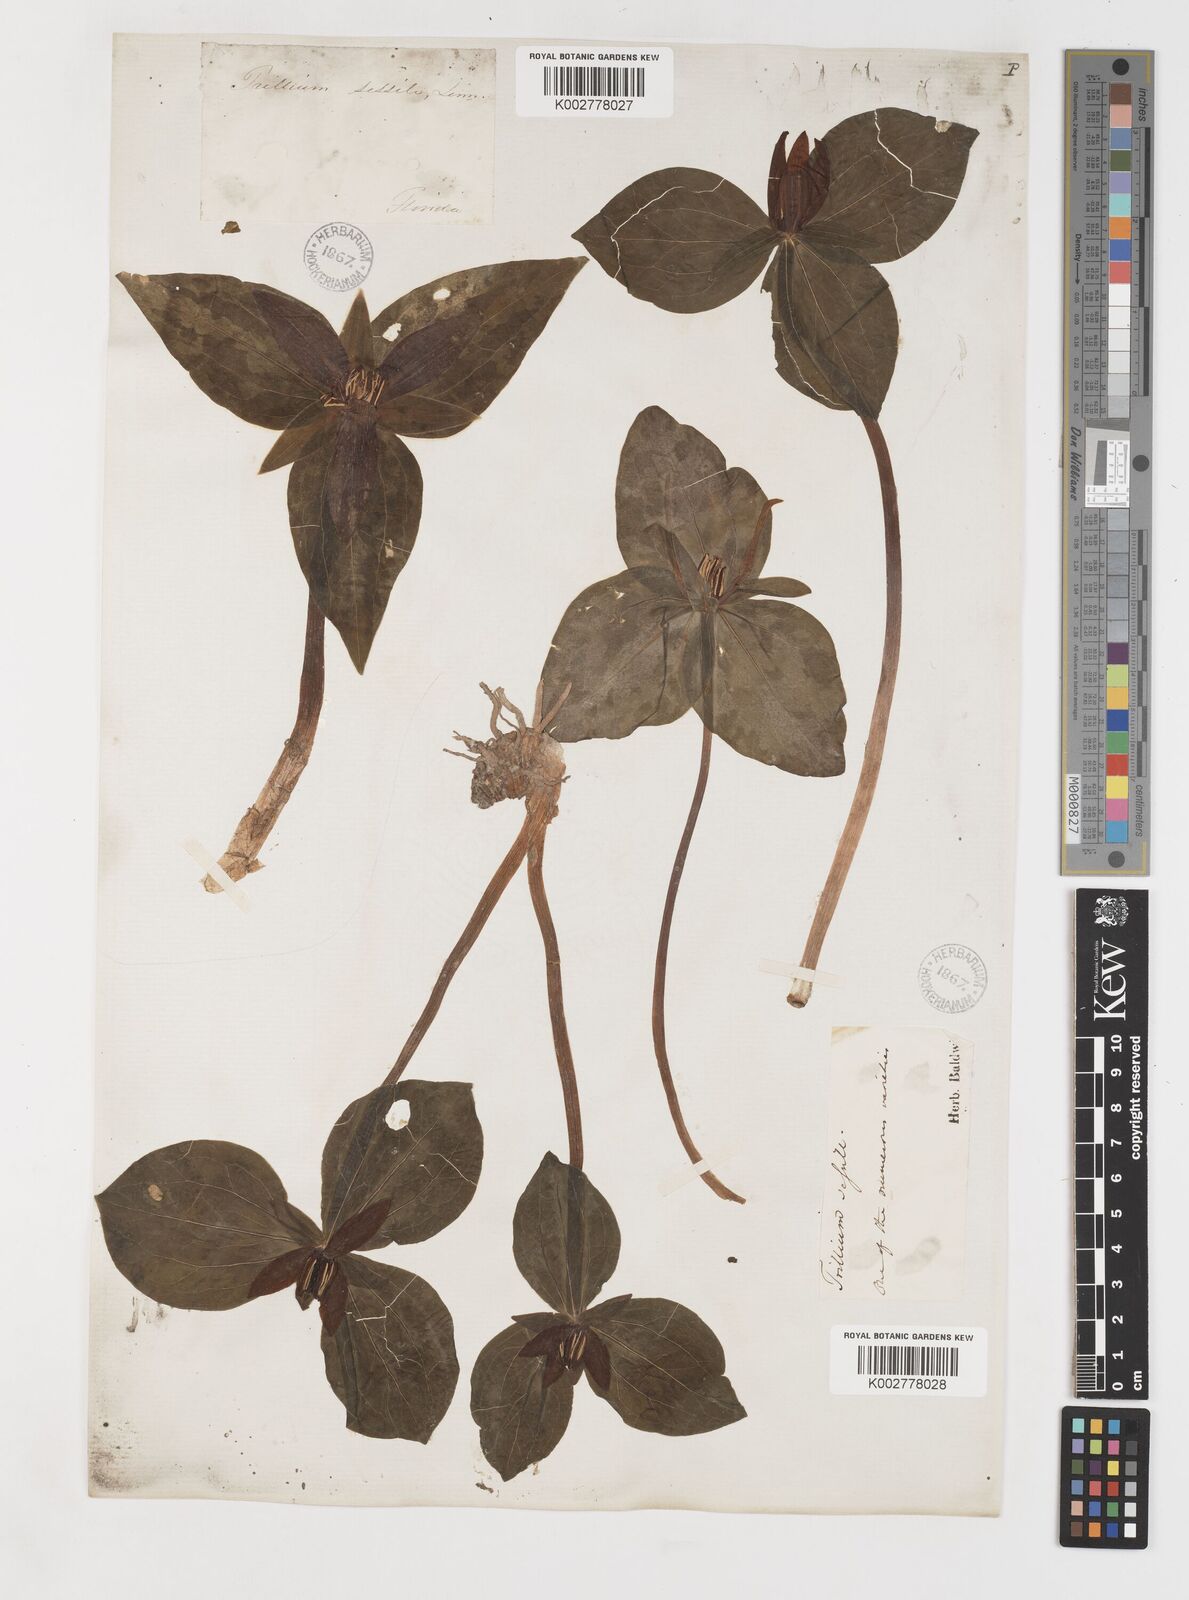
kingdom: Plantae
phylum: Tracheophyta
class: Liliopsida
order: Liliales
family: Melanthiaceae
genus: Trillium
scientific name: Trillium sessile
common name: Sessile trillium
